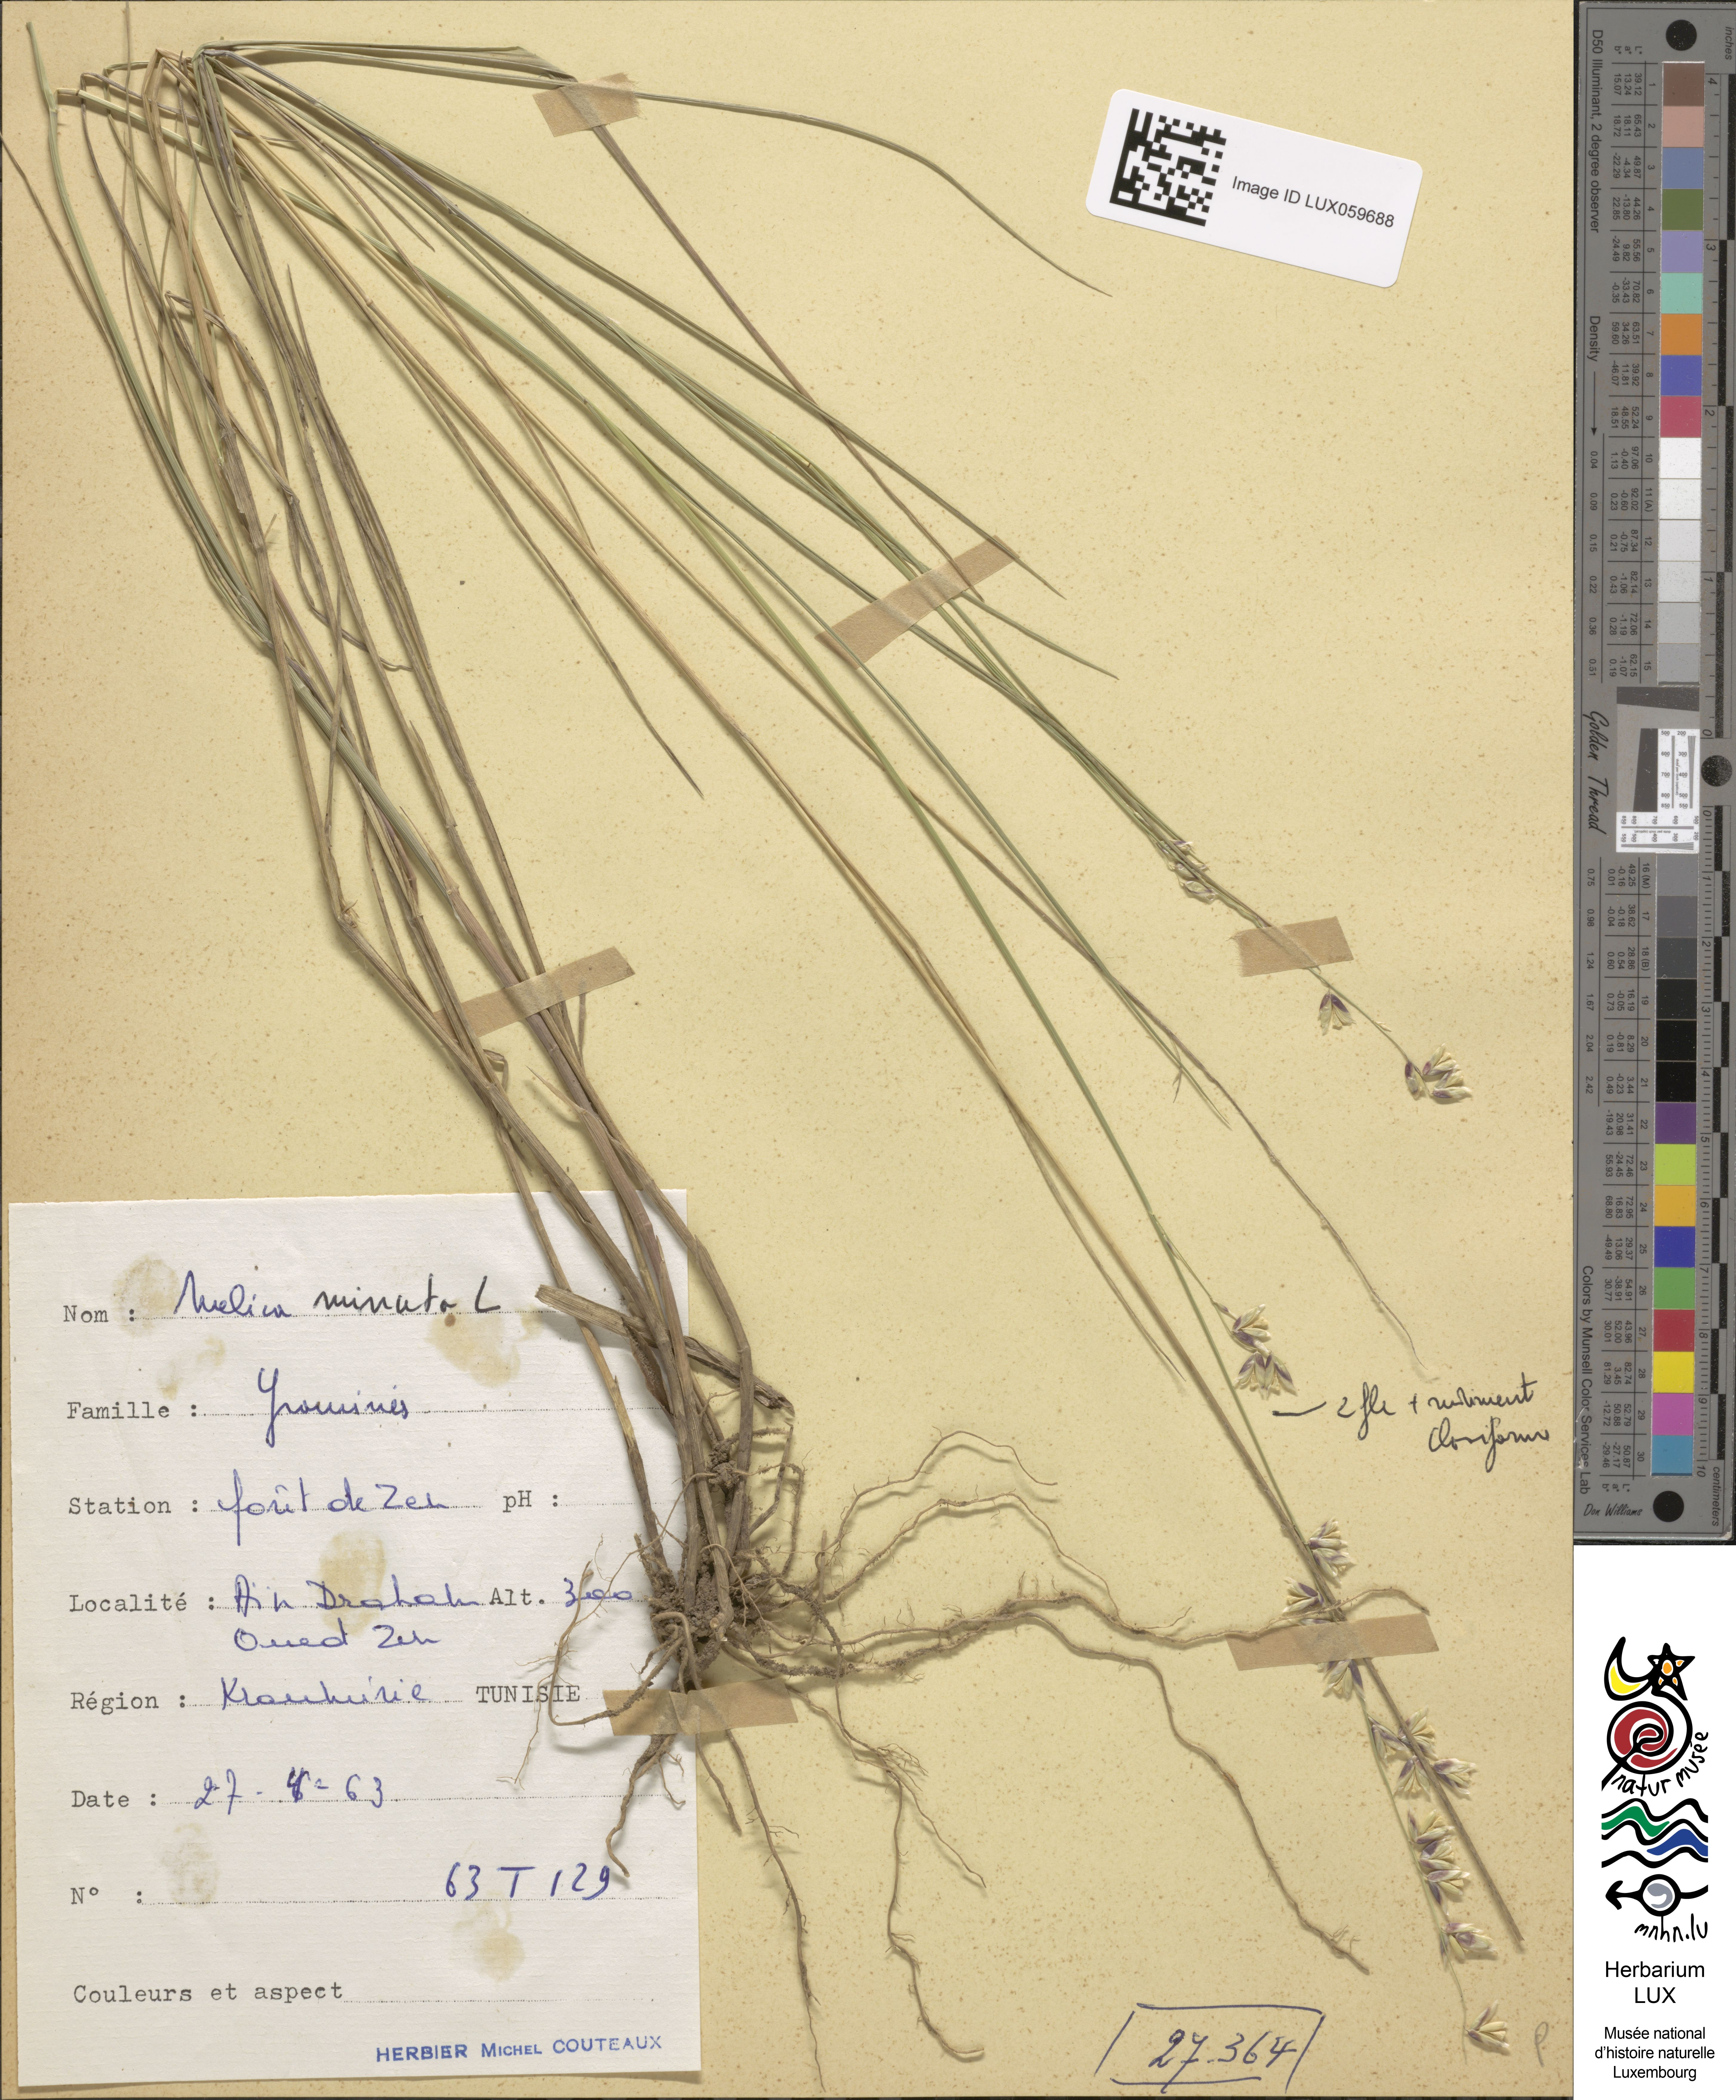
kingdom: Plantae
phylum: Tracheophyta
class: Liliopsida
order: Poales
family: Poaceae
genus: Melica
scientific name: Melica minuta
